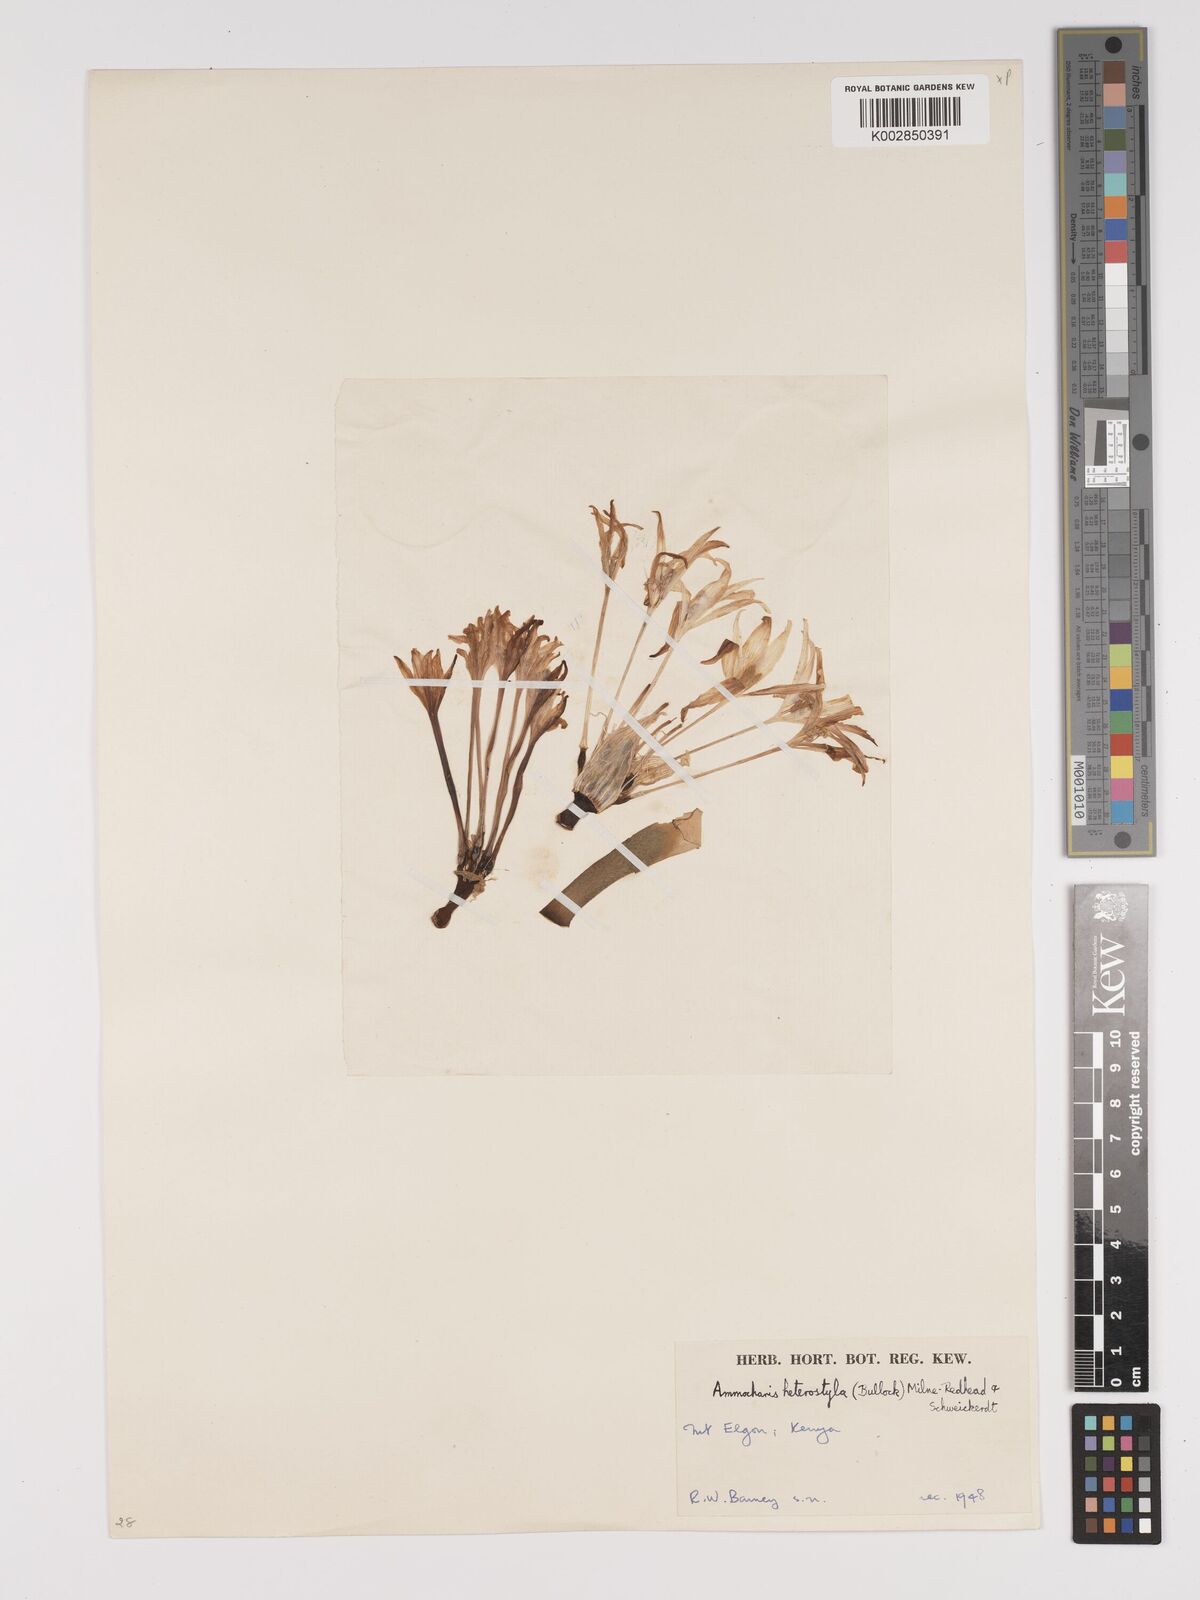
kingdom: Plantae
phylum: Tracheophyta
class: Liliopsida
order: Asparagales
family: Amaryllidaceae
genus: Ammocharis
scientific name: Ammocharis angolensis
